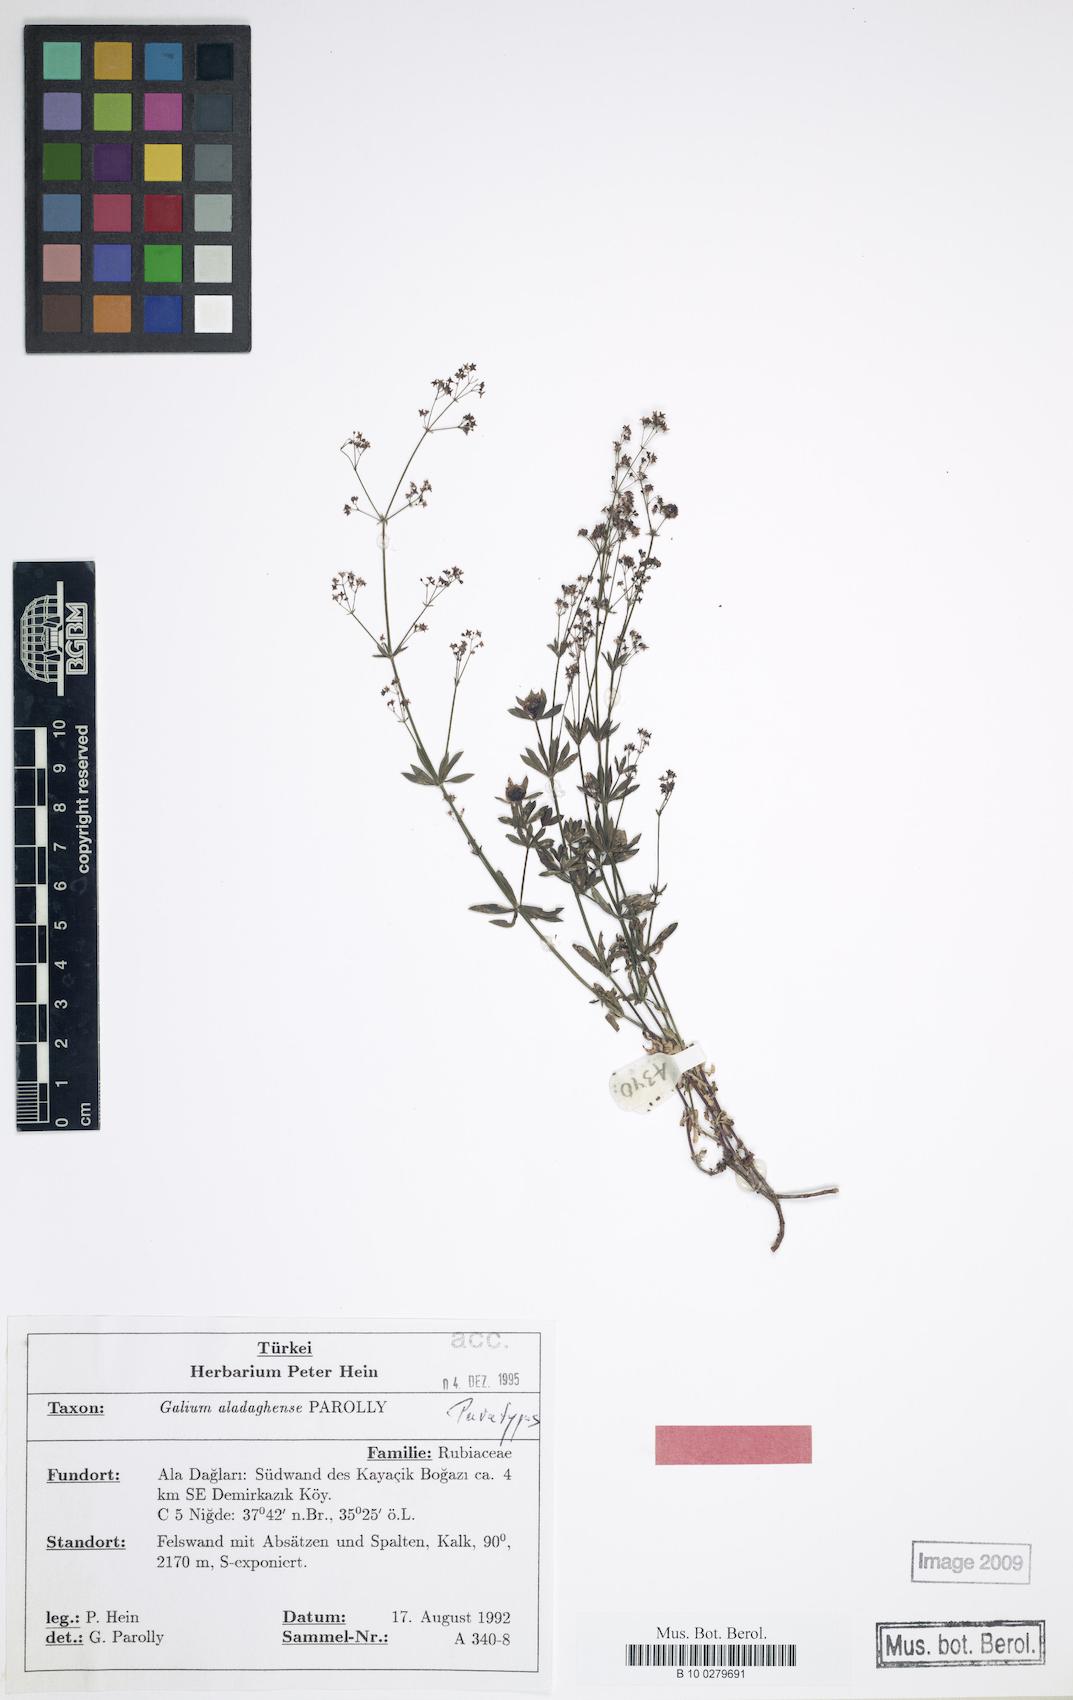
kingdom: Plantae
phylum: Tracheophyta
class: Magnoliopsida
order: Gentianales
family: Rubiaceae
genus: Galium
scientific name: Galium aladaghense
